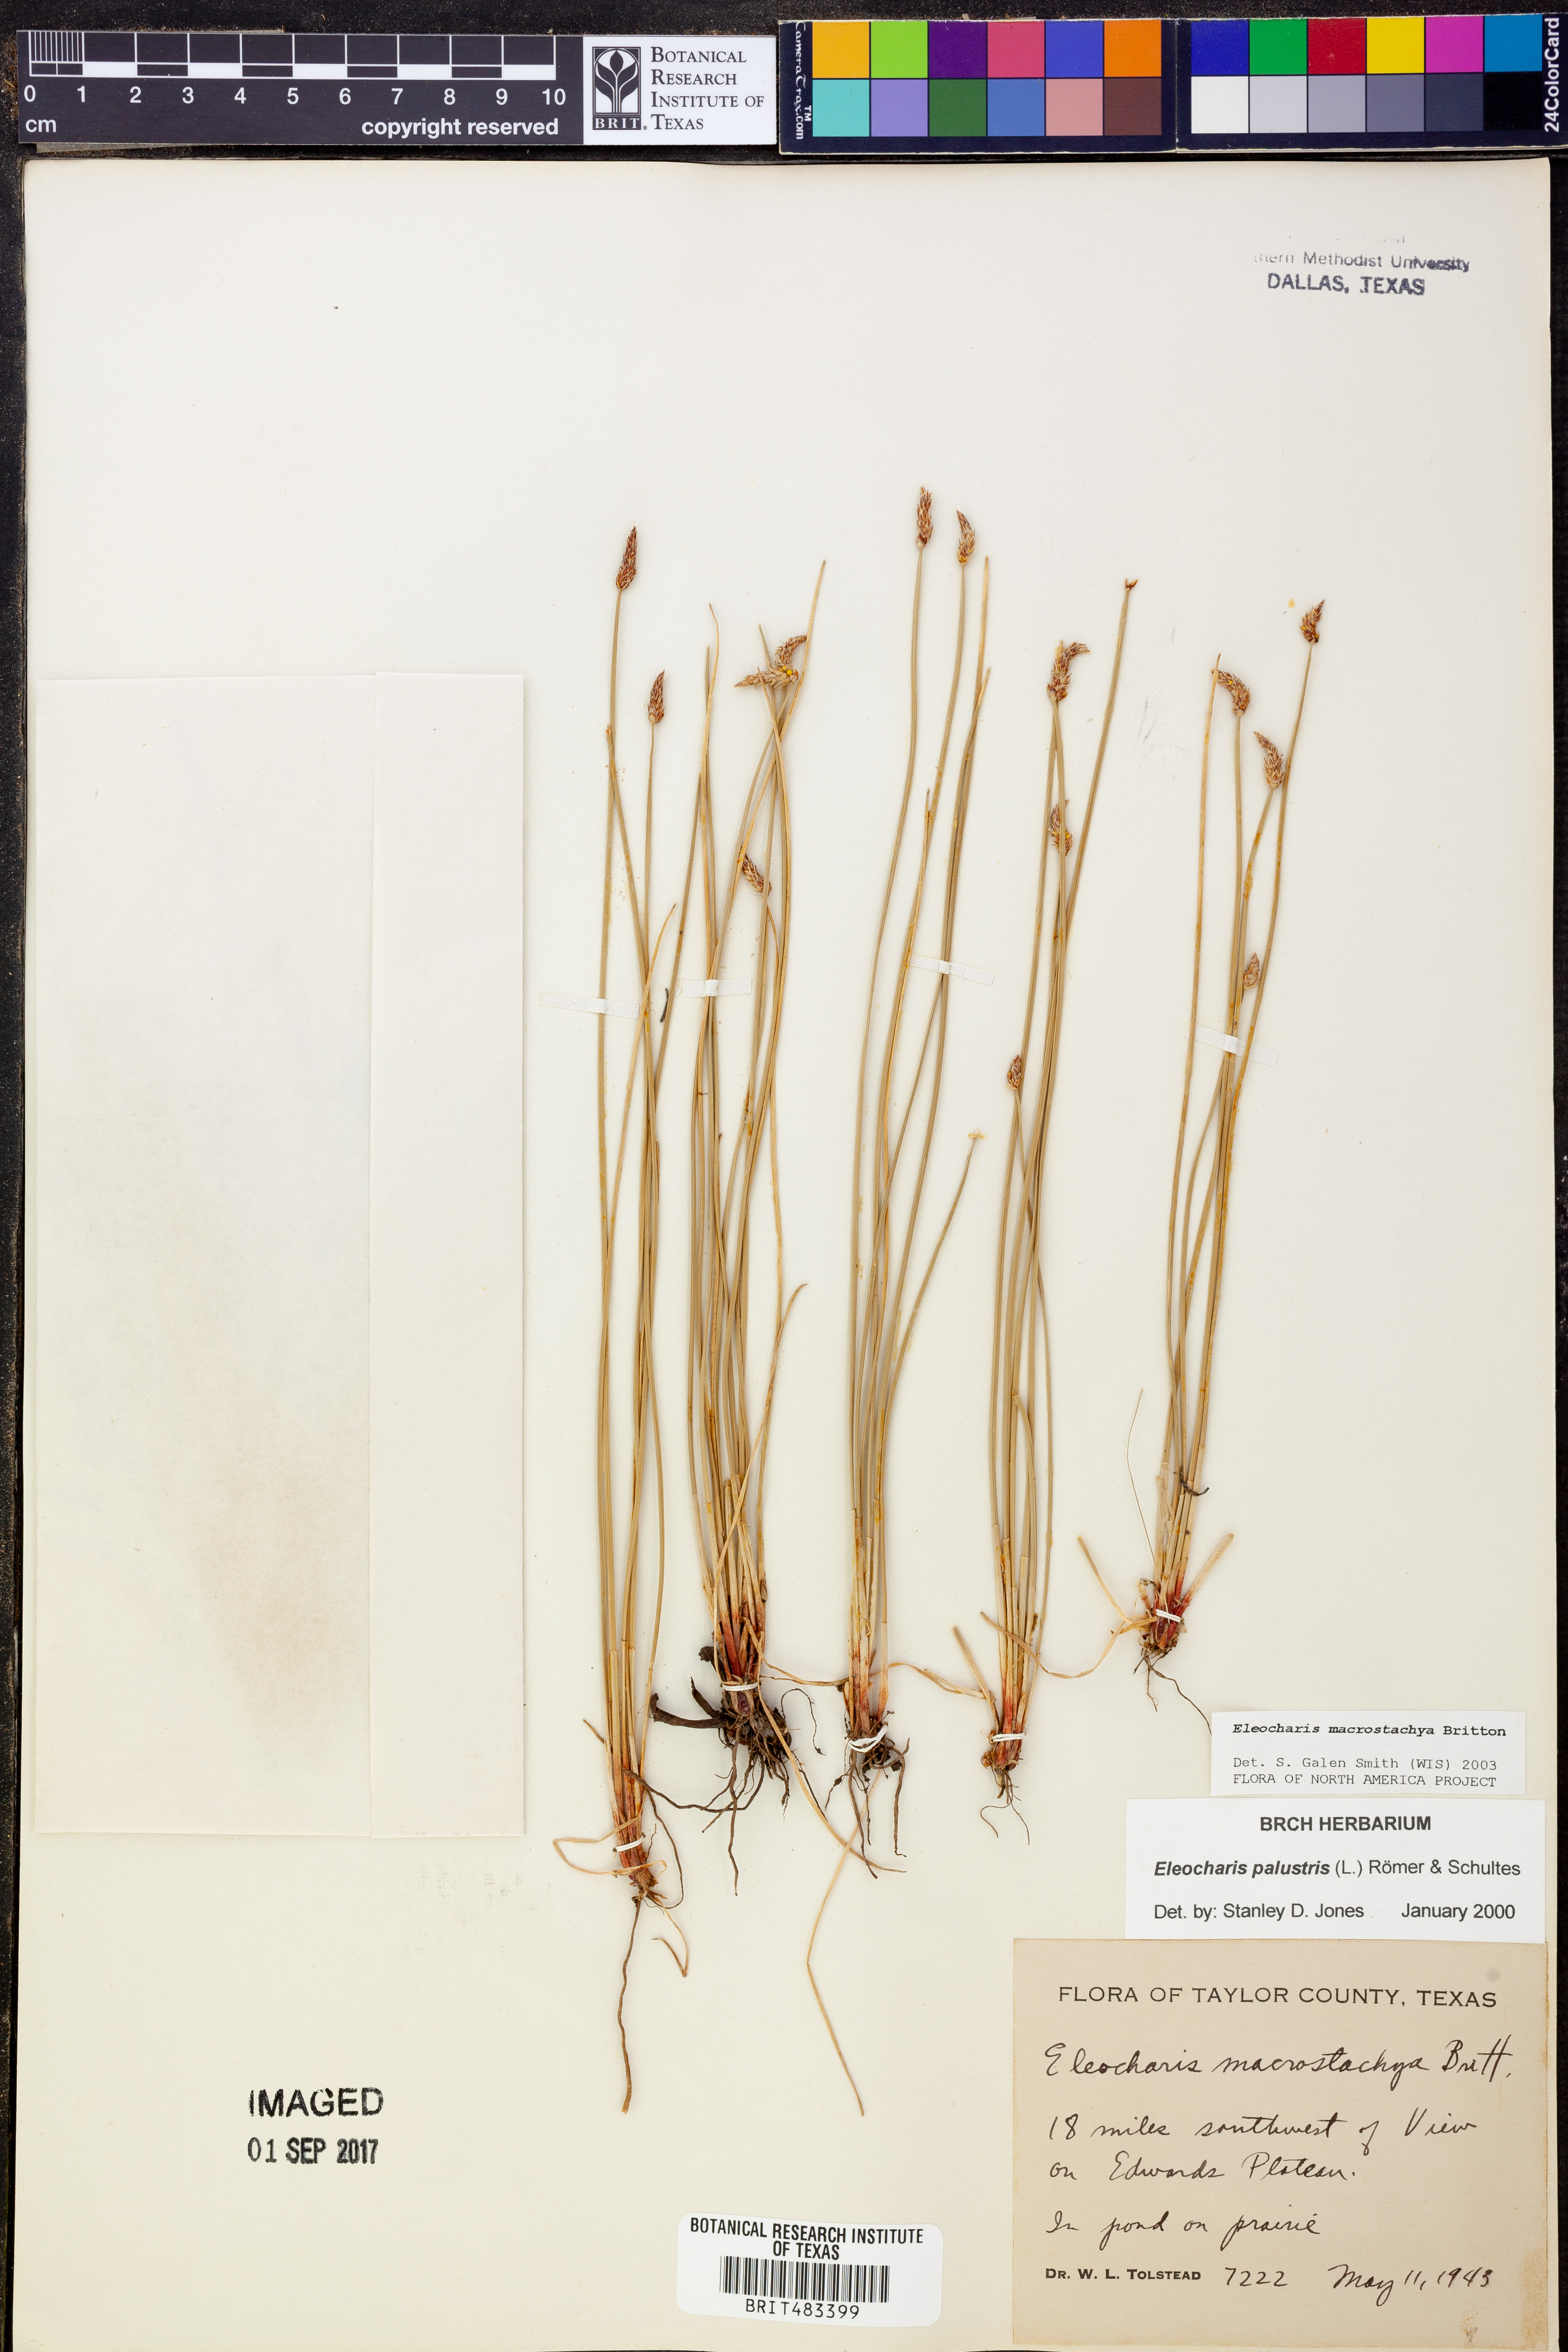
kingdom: Plantae
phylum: Tracheophyta
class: Liliopsida
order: Poales
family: Cyperaceae
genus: Eleocharis
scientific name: Eleocharis macrostachya
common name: Pale spikerush
